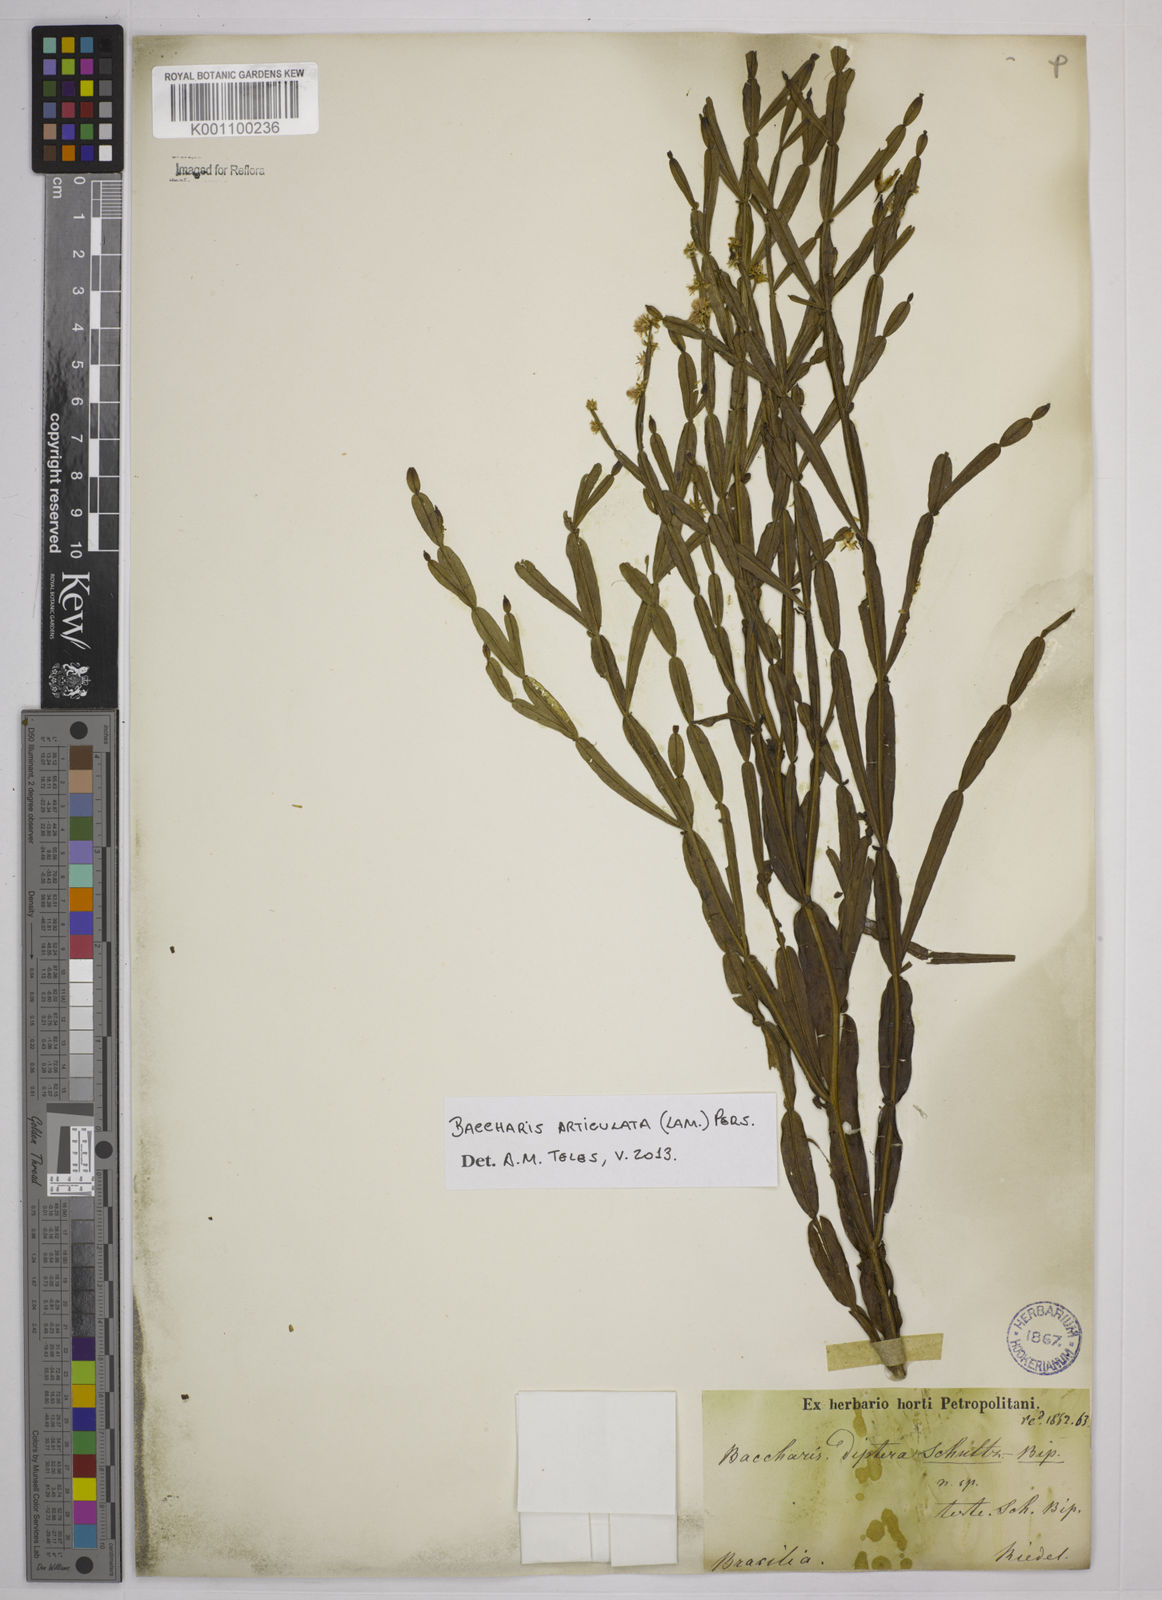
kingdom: Plantae
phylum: Tracheophyta
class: Magnoliopsida
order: Asterales
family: Asteraceae
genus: Baccharis
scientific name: Baccharis
